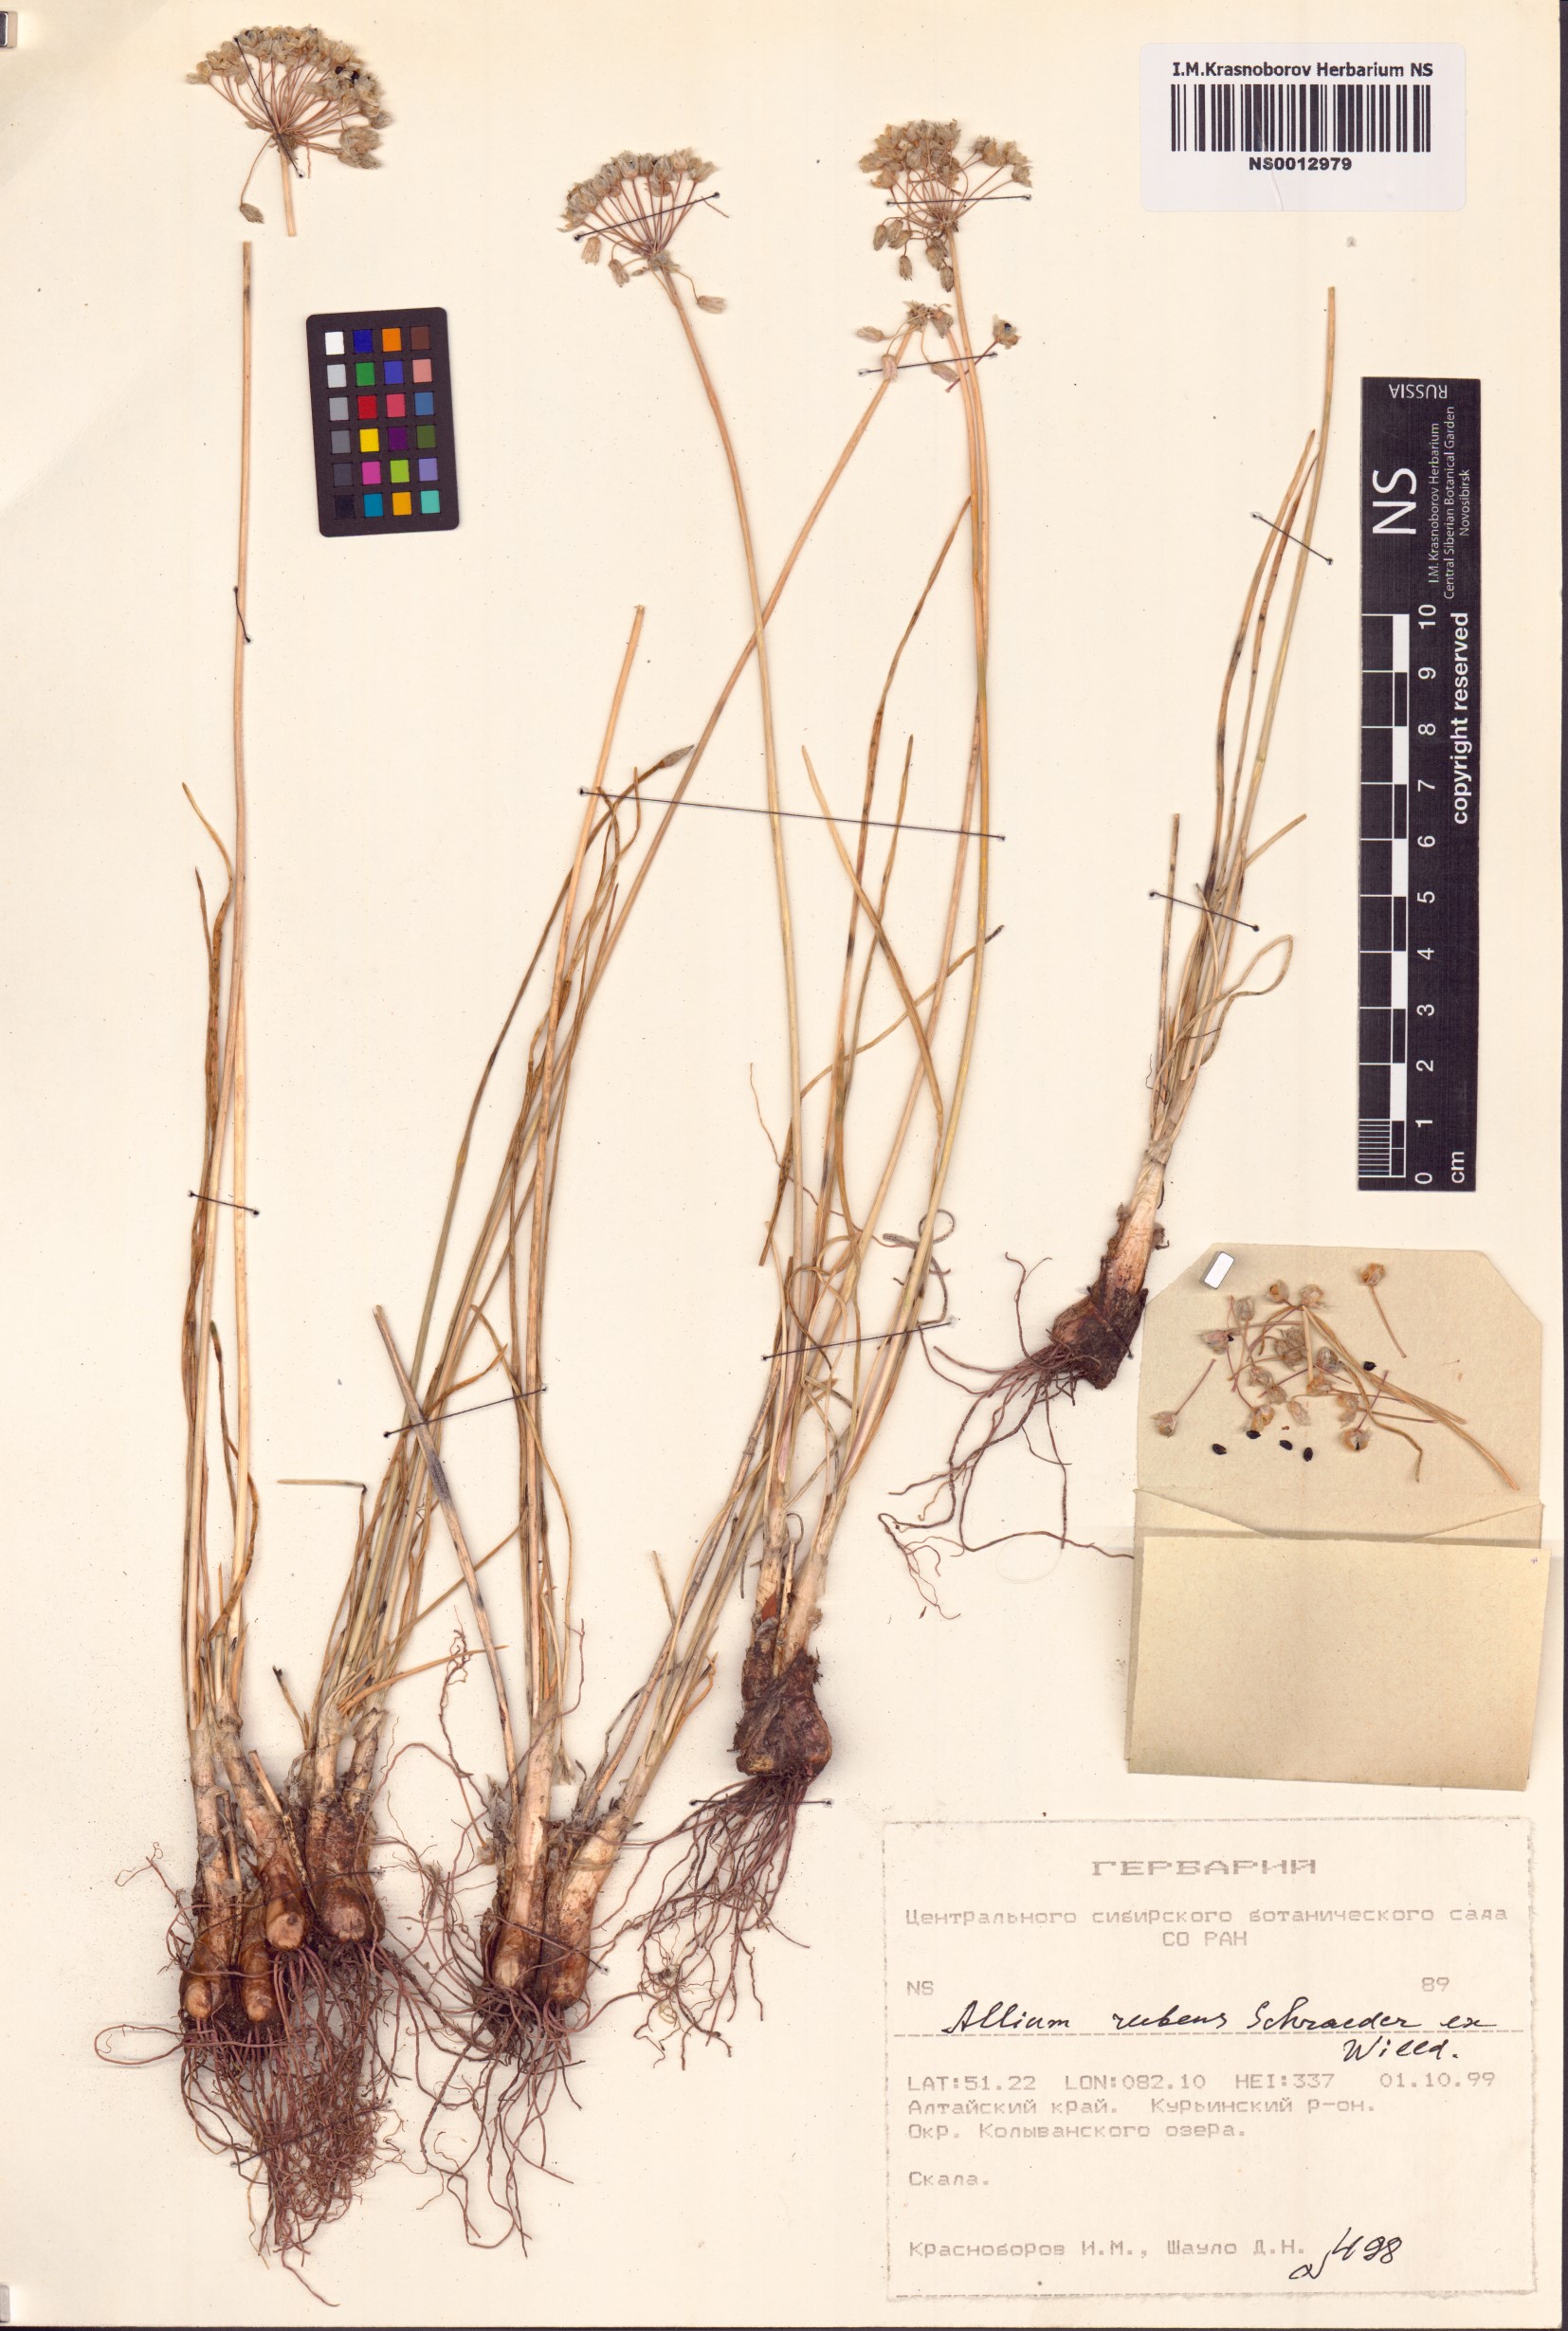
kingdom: Plantae
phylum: Tracheophyta
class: Liliopsida
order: Asparagales
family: Amaryllidaceae
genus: Allium
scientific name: Allium rubens
